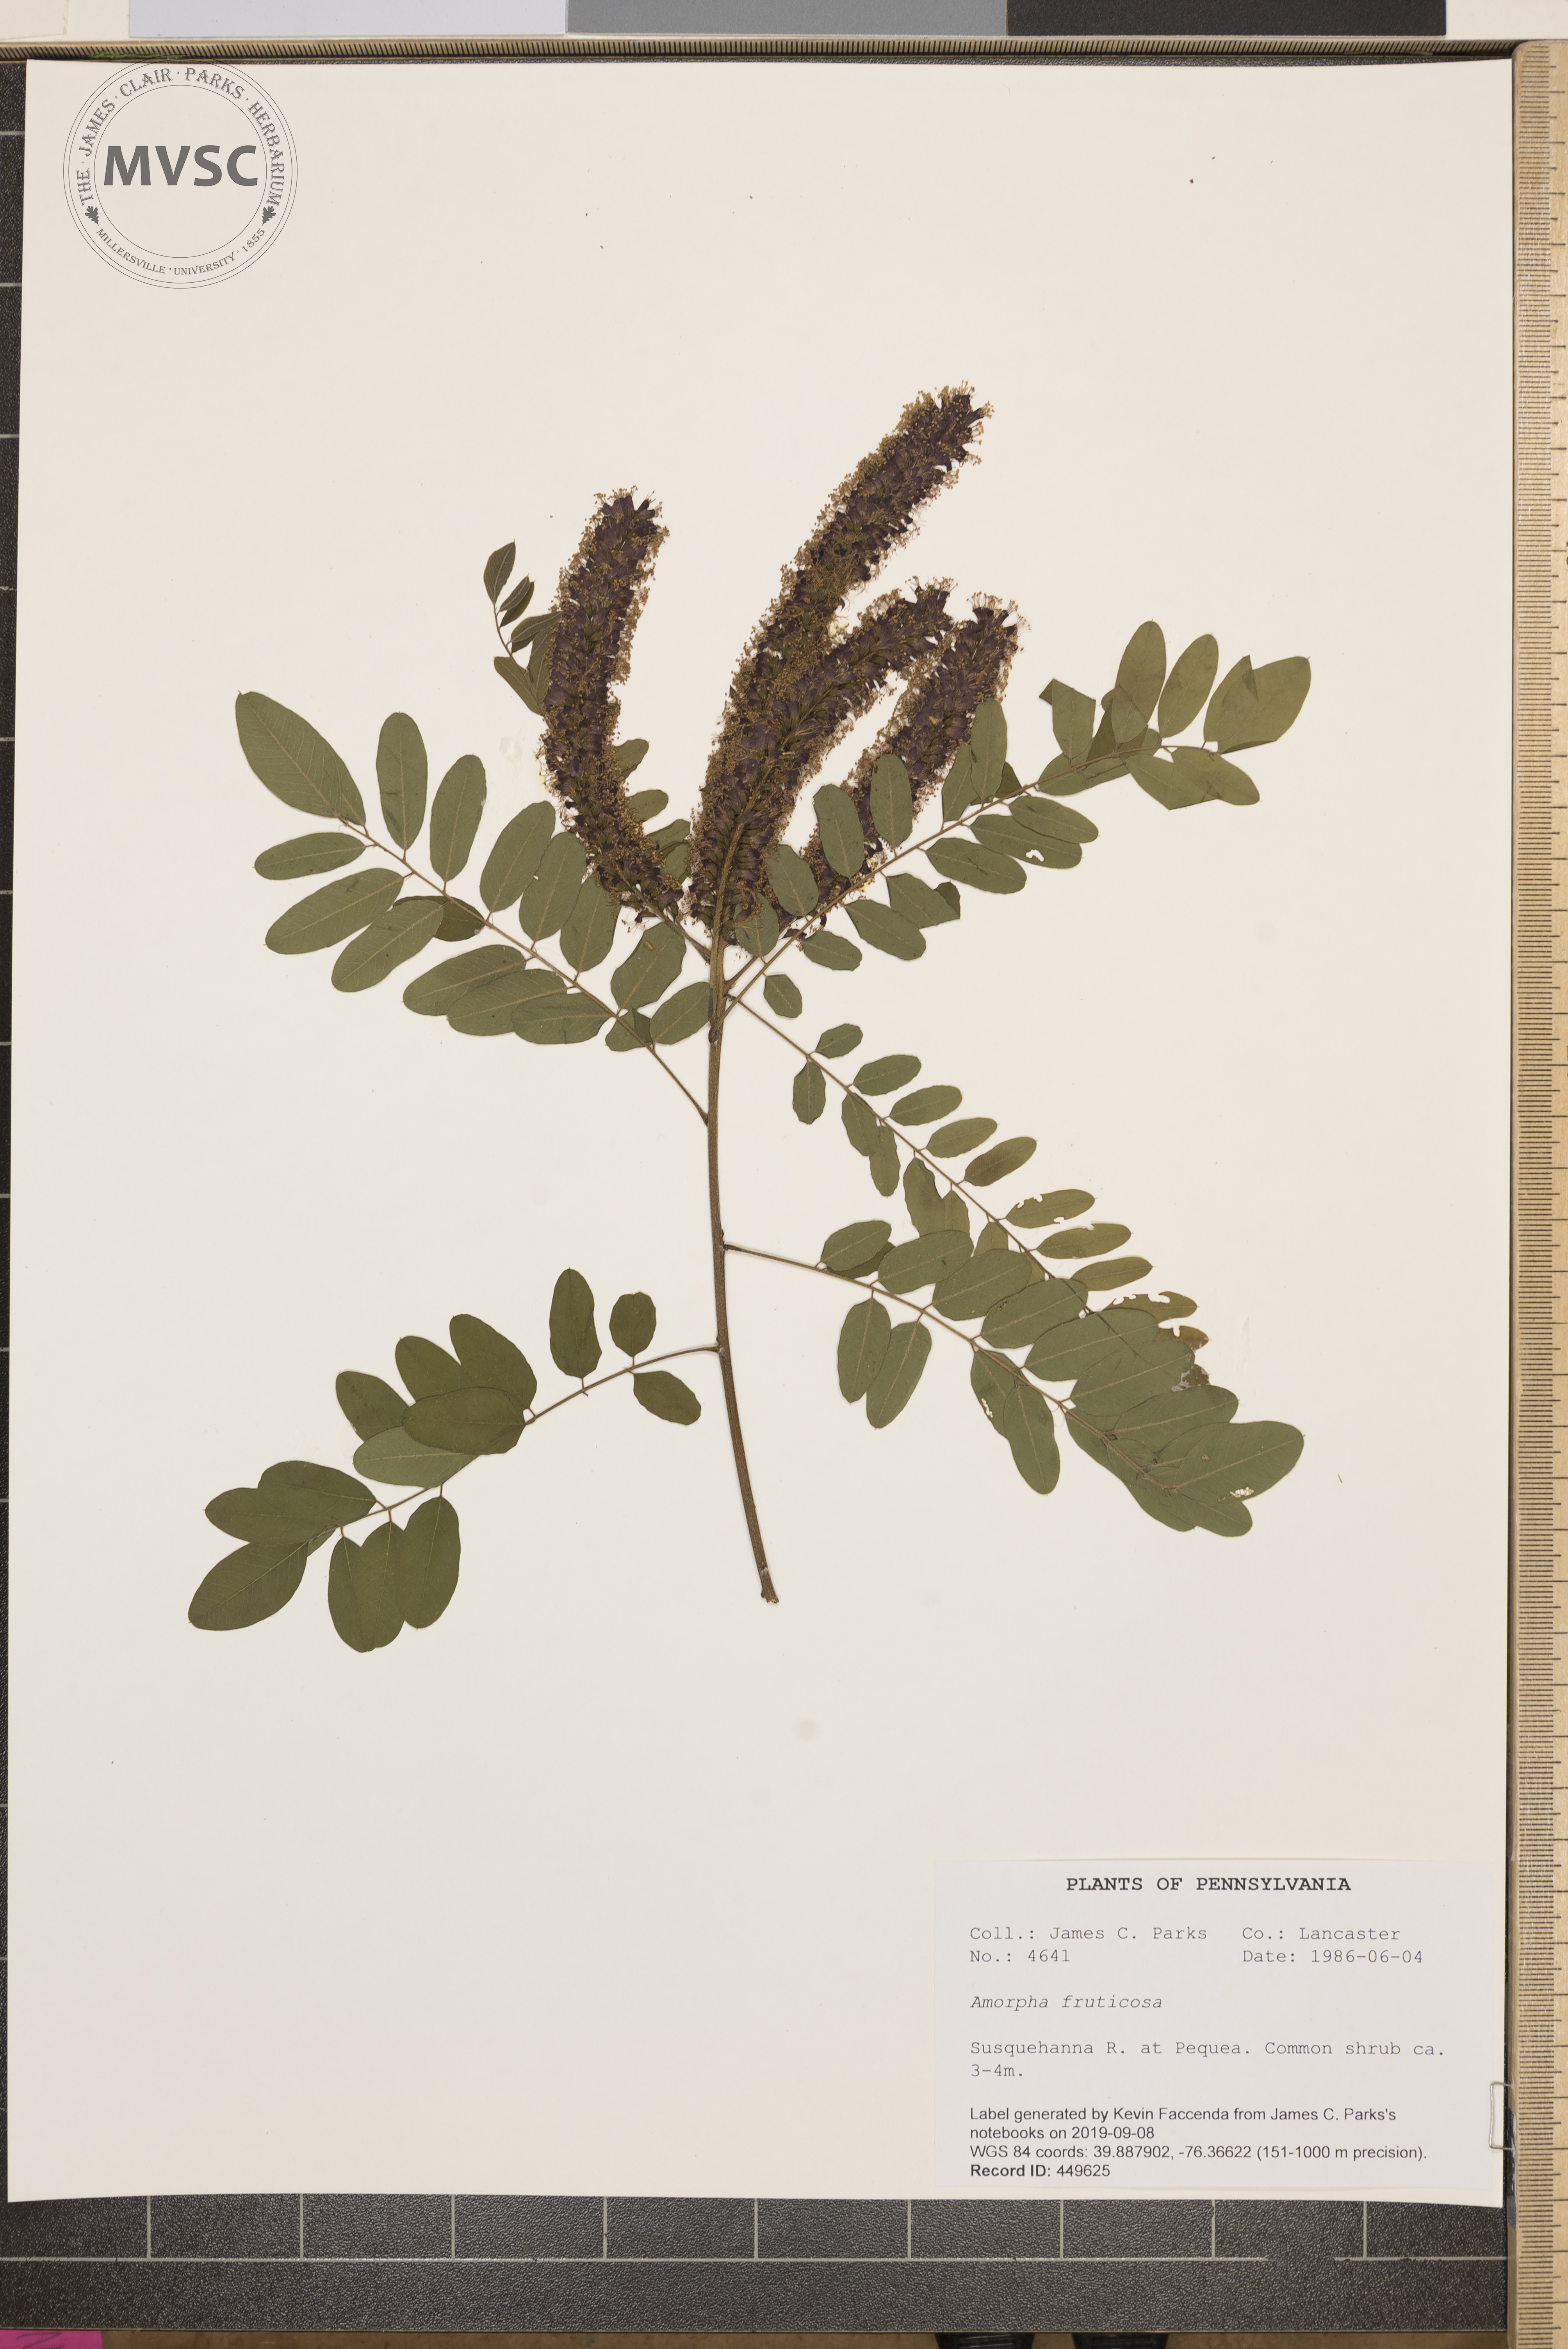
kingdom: Plantae
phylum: Tracheophyta
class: Magnoliopsida
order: Fabales
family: Fabaceae
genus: Amorpha
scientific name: Amorpha fruticosa
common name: False indigo
